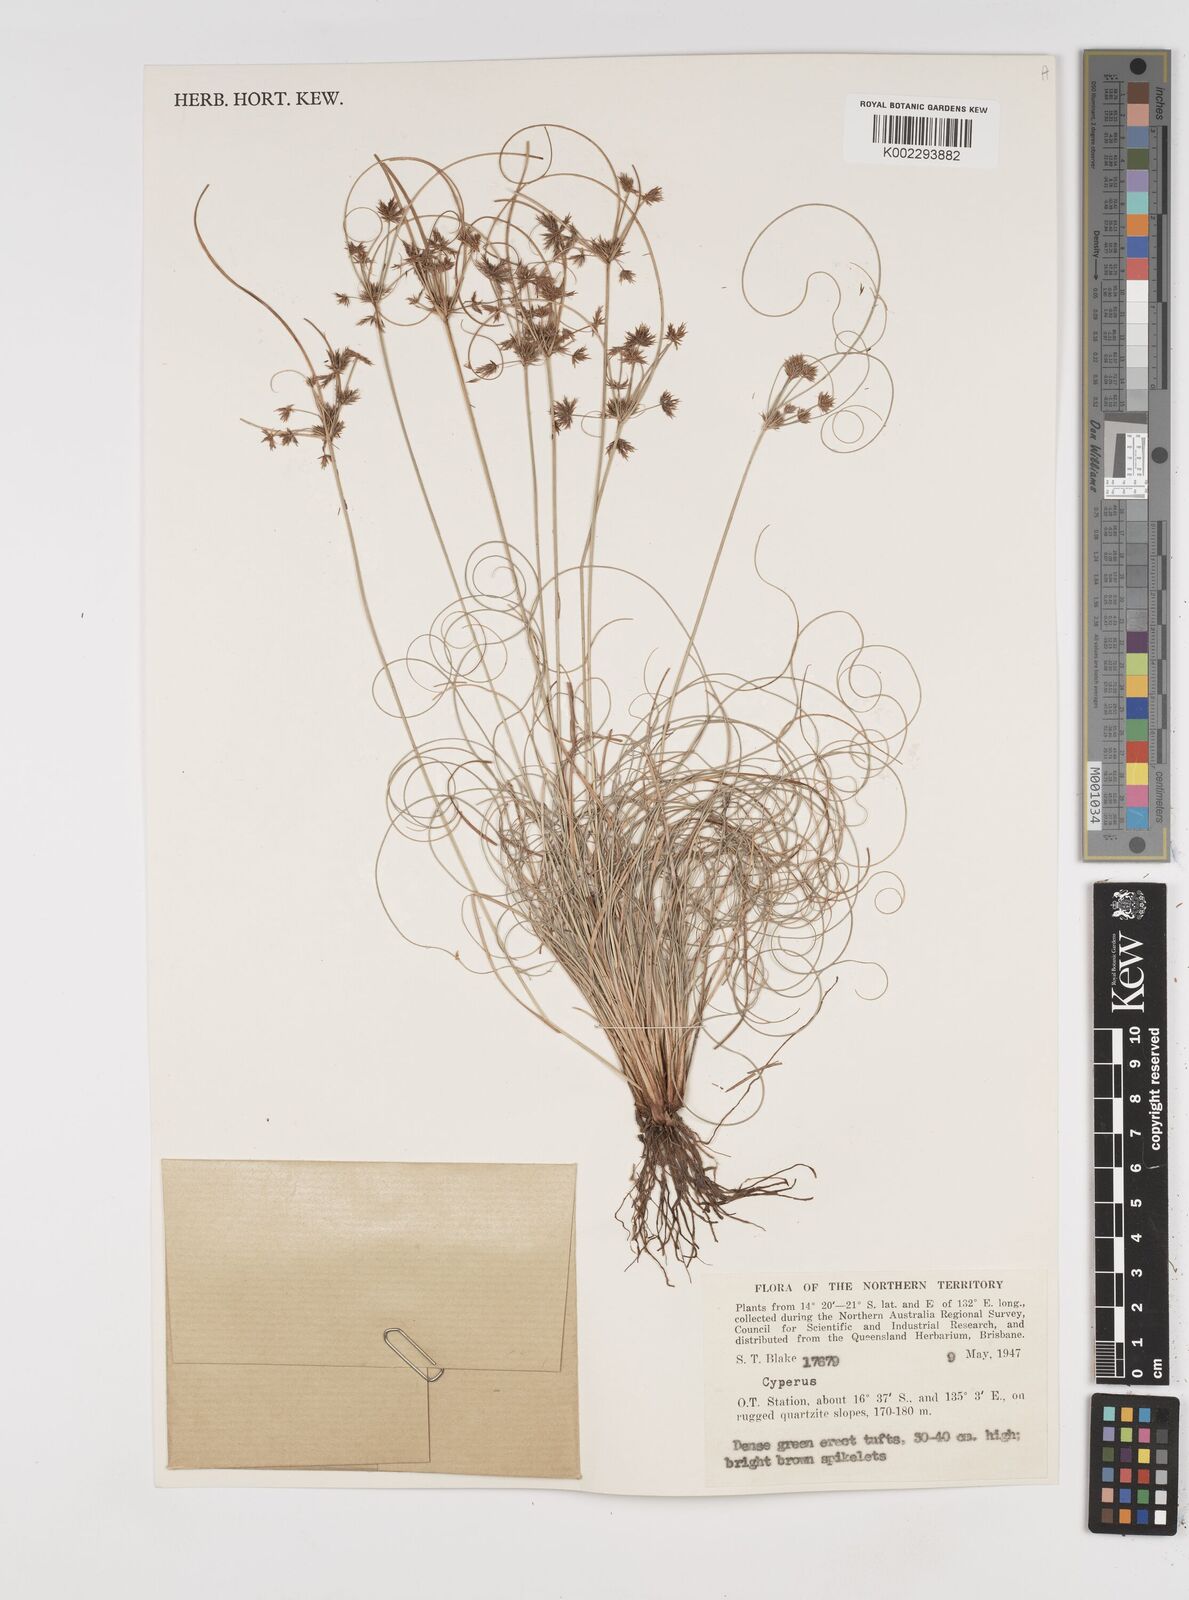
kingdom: Plantae
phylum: Tracheophyta
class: Liliopsida
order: Poales
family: Cyperaceae
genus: Cyperus
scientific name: Cyperus
